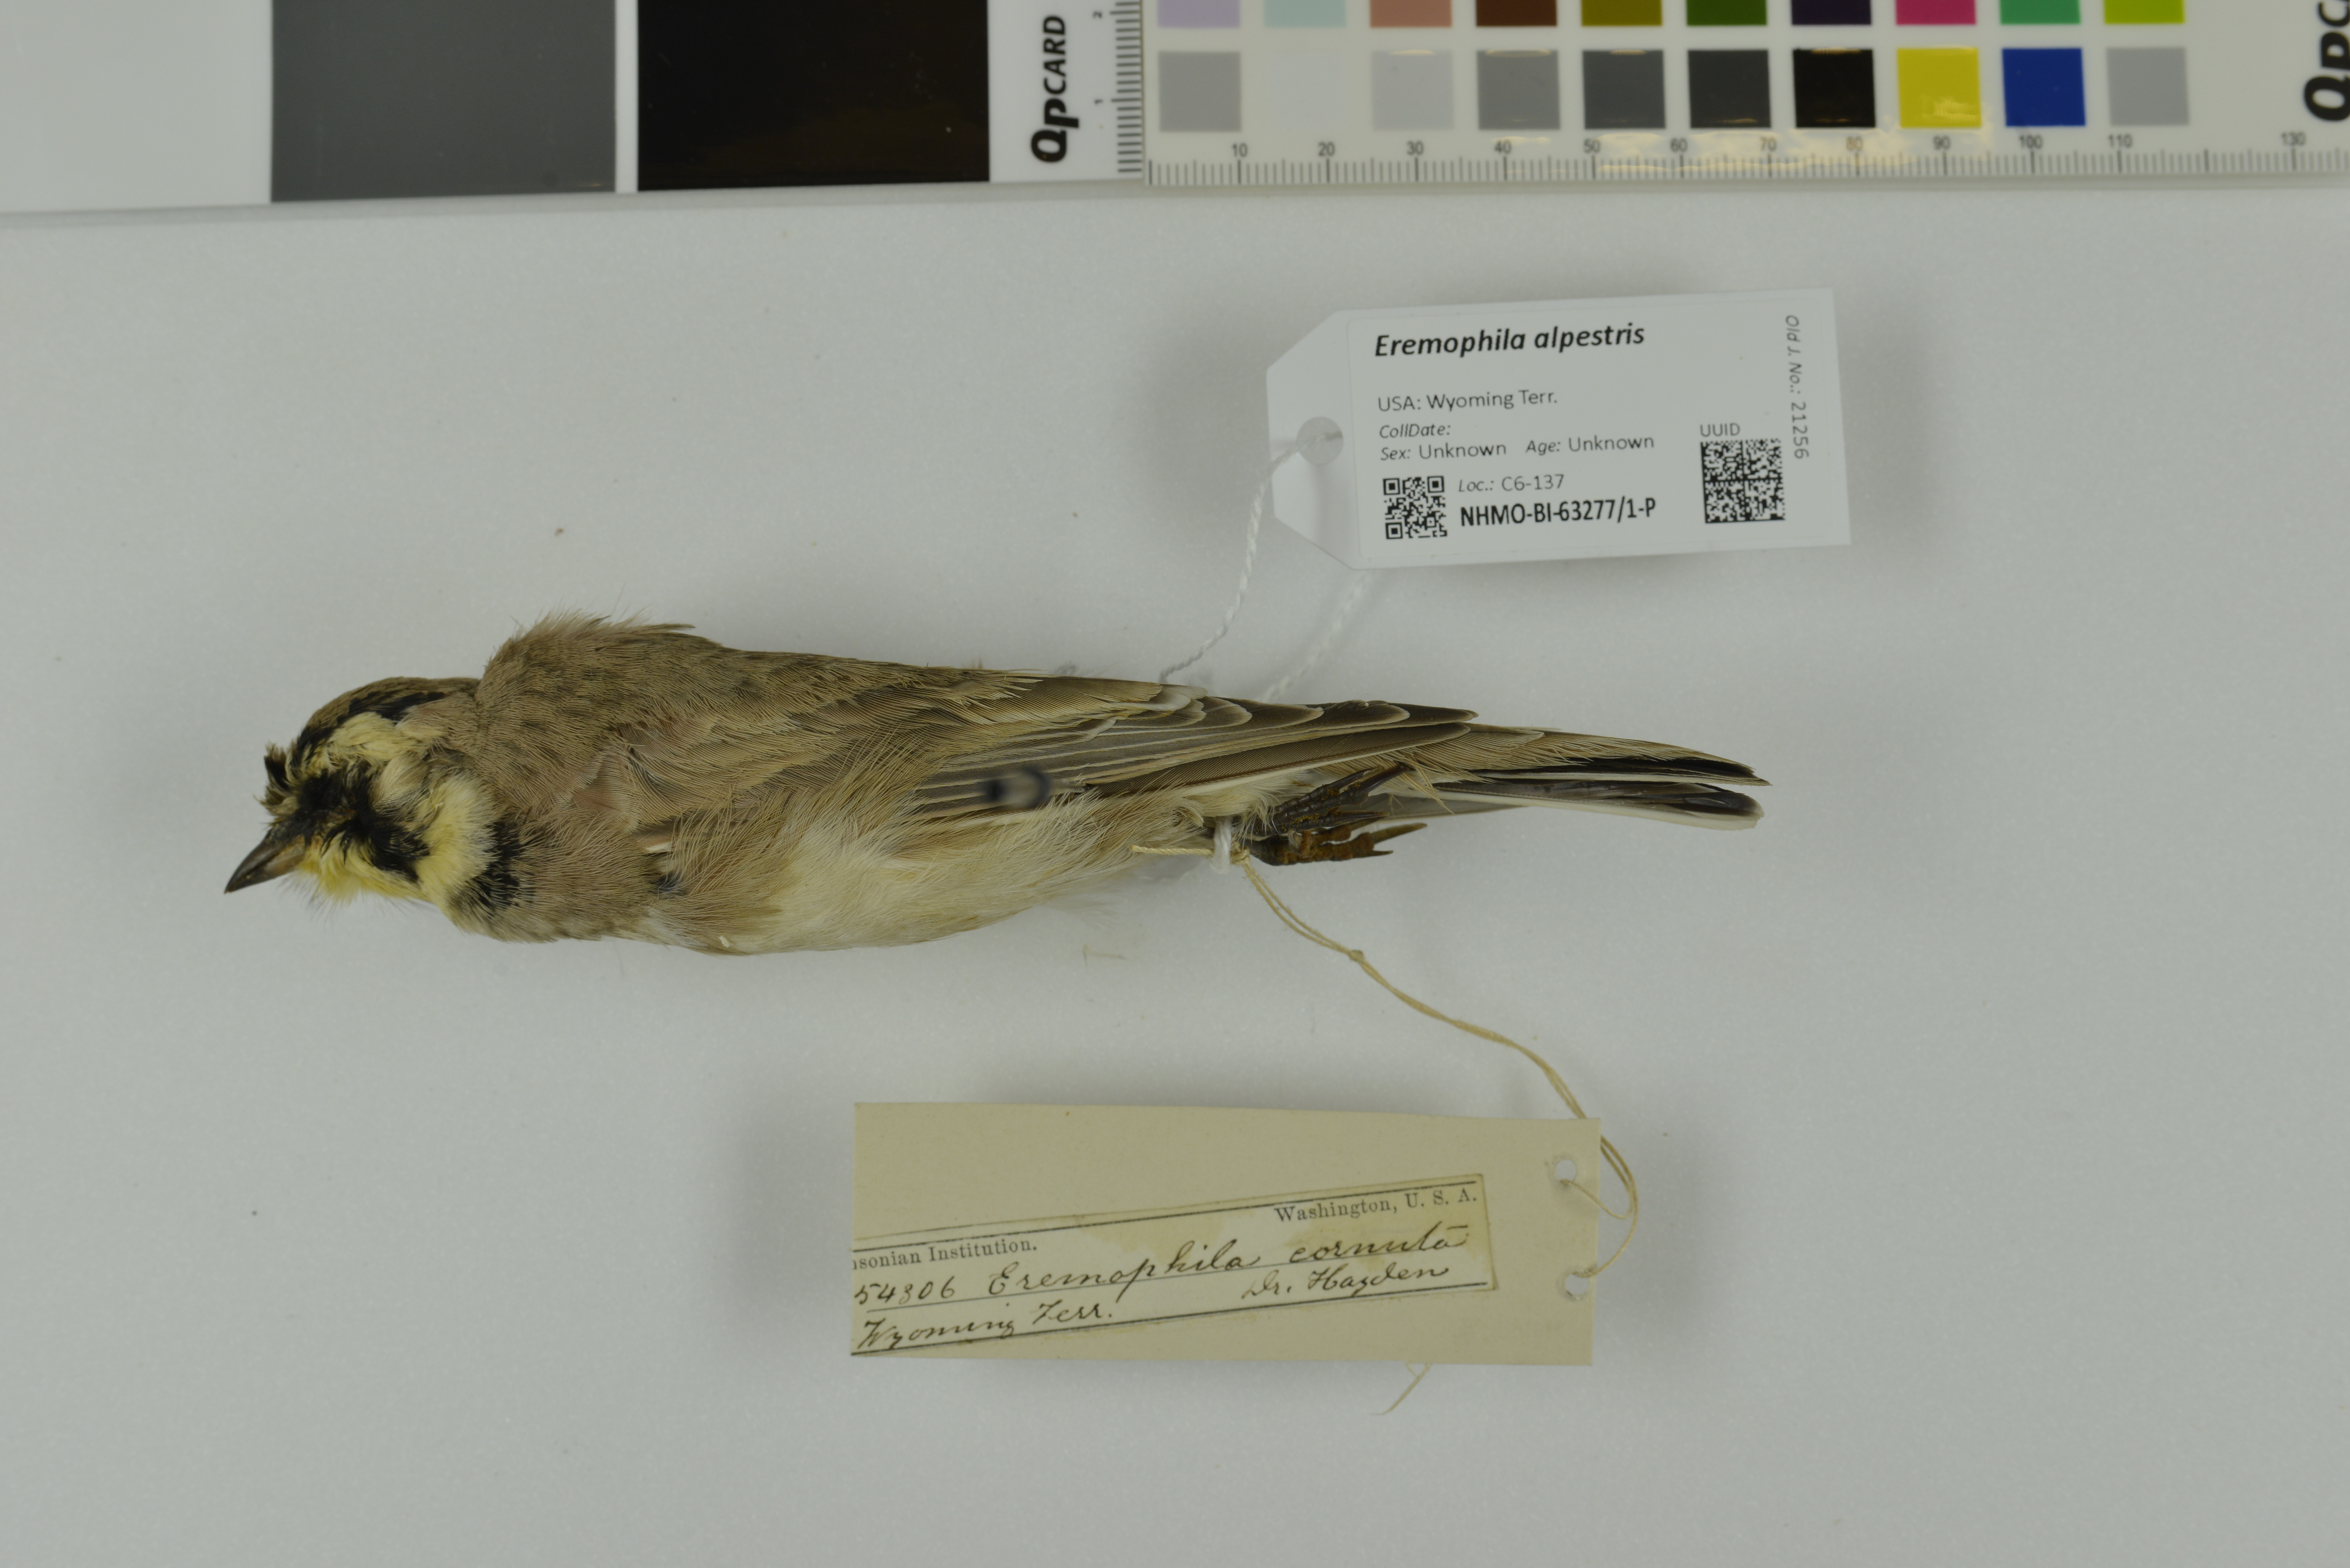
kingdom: Animalia
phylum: Chordata
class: Aves
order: Passeriformes
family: Alaudidae
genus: Eremophila
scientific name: Eremophila alpestris
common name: Horned lark
